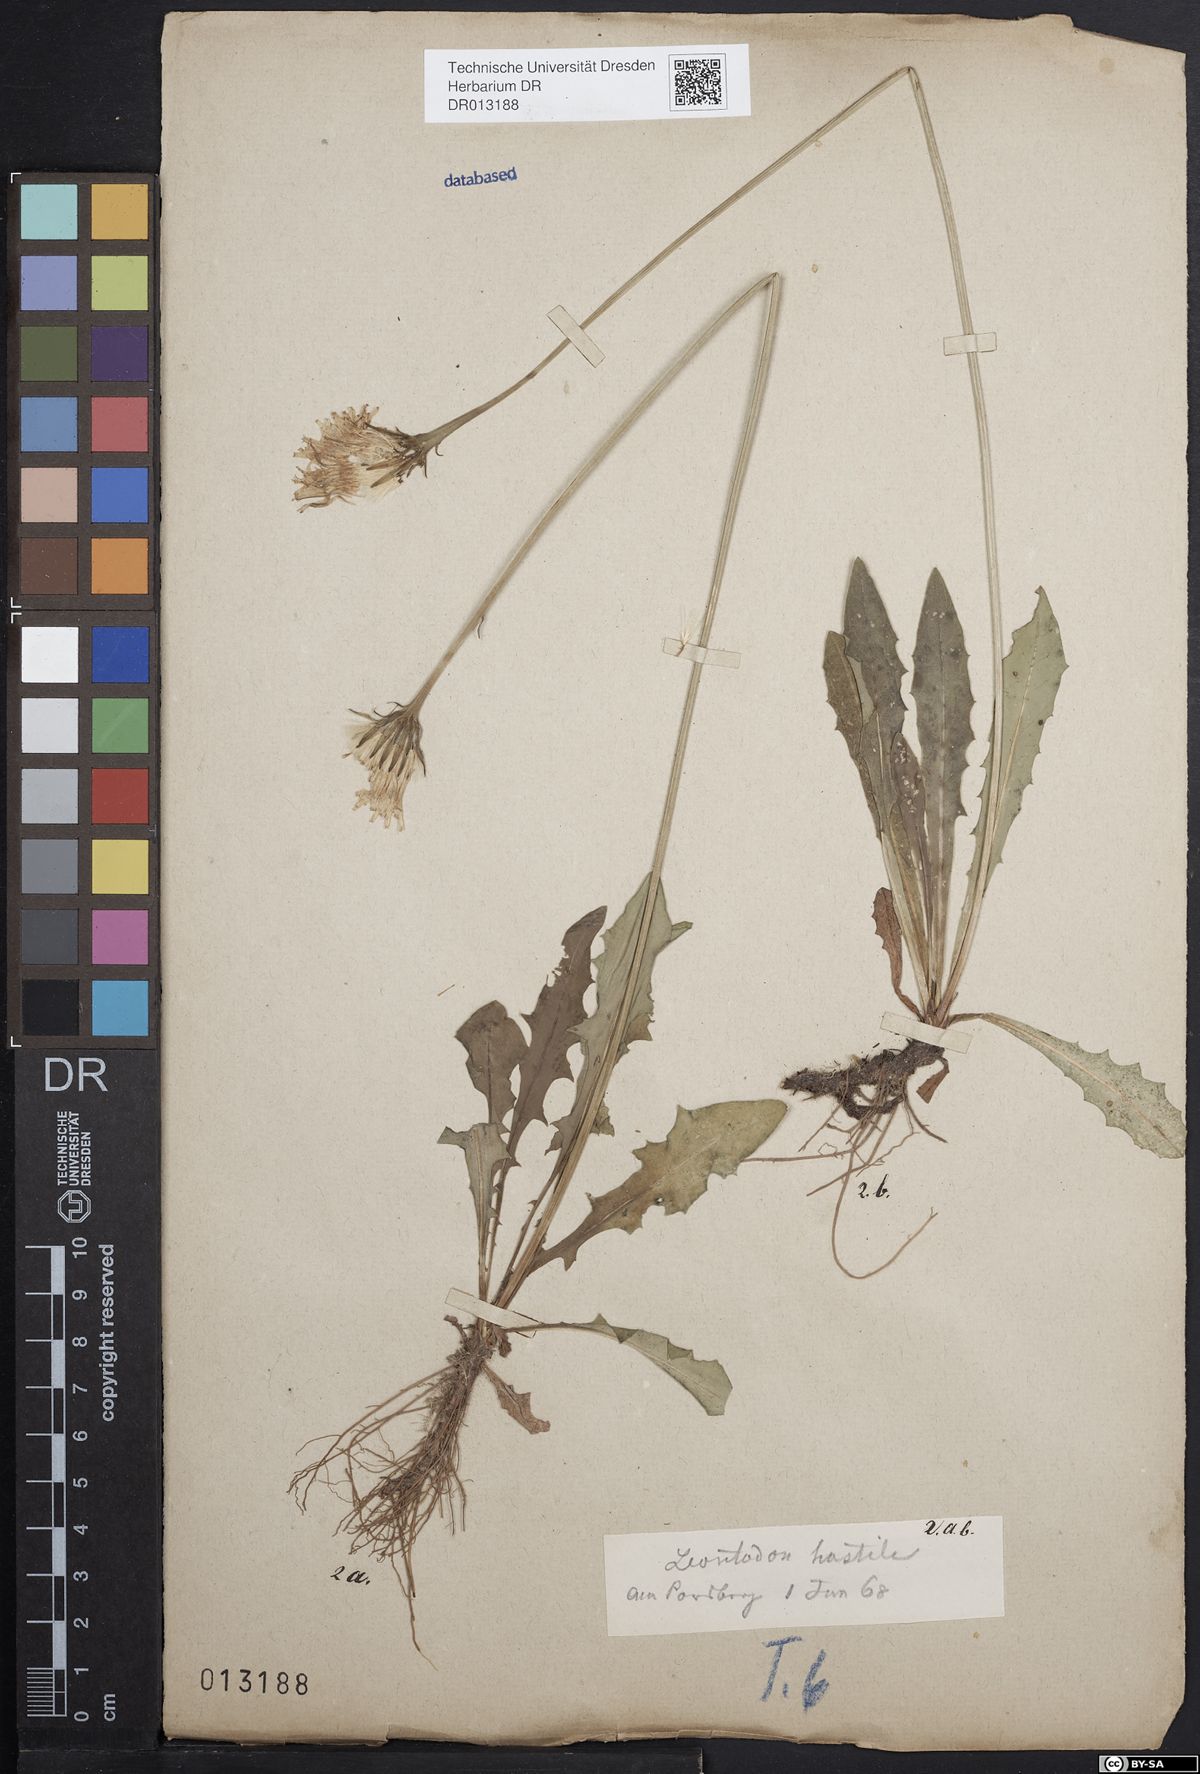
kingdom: Plantae
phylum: Tracheophyta
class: Magnoliopsida
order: Asterales
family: Asteraceae
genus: Leontodon
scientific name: Leontodon hispidus
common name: Rough hawkbit
